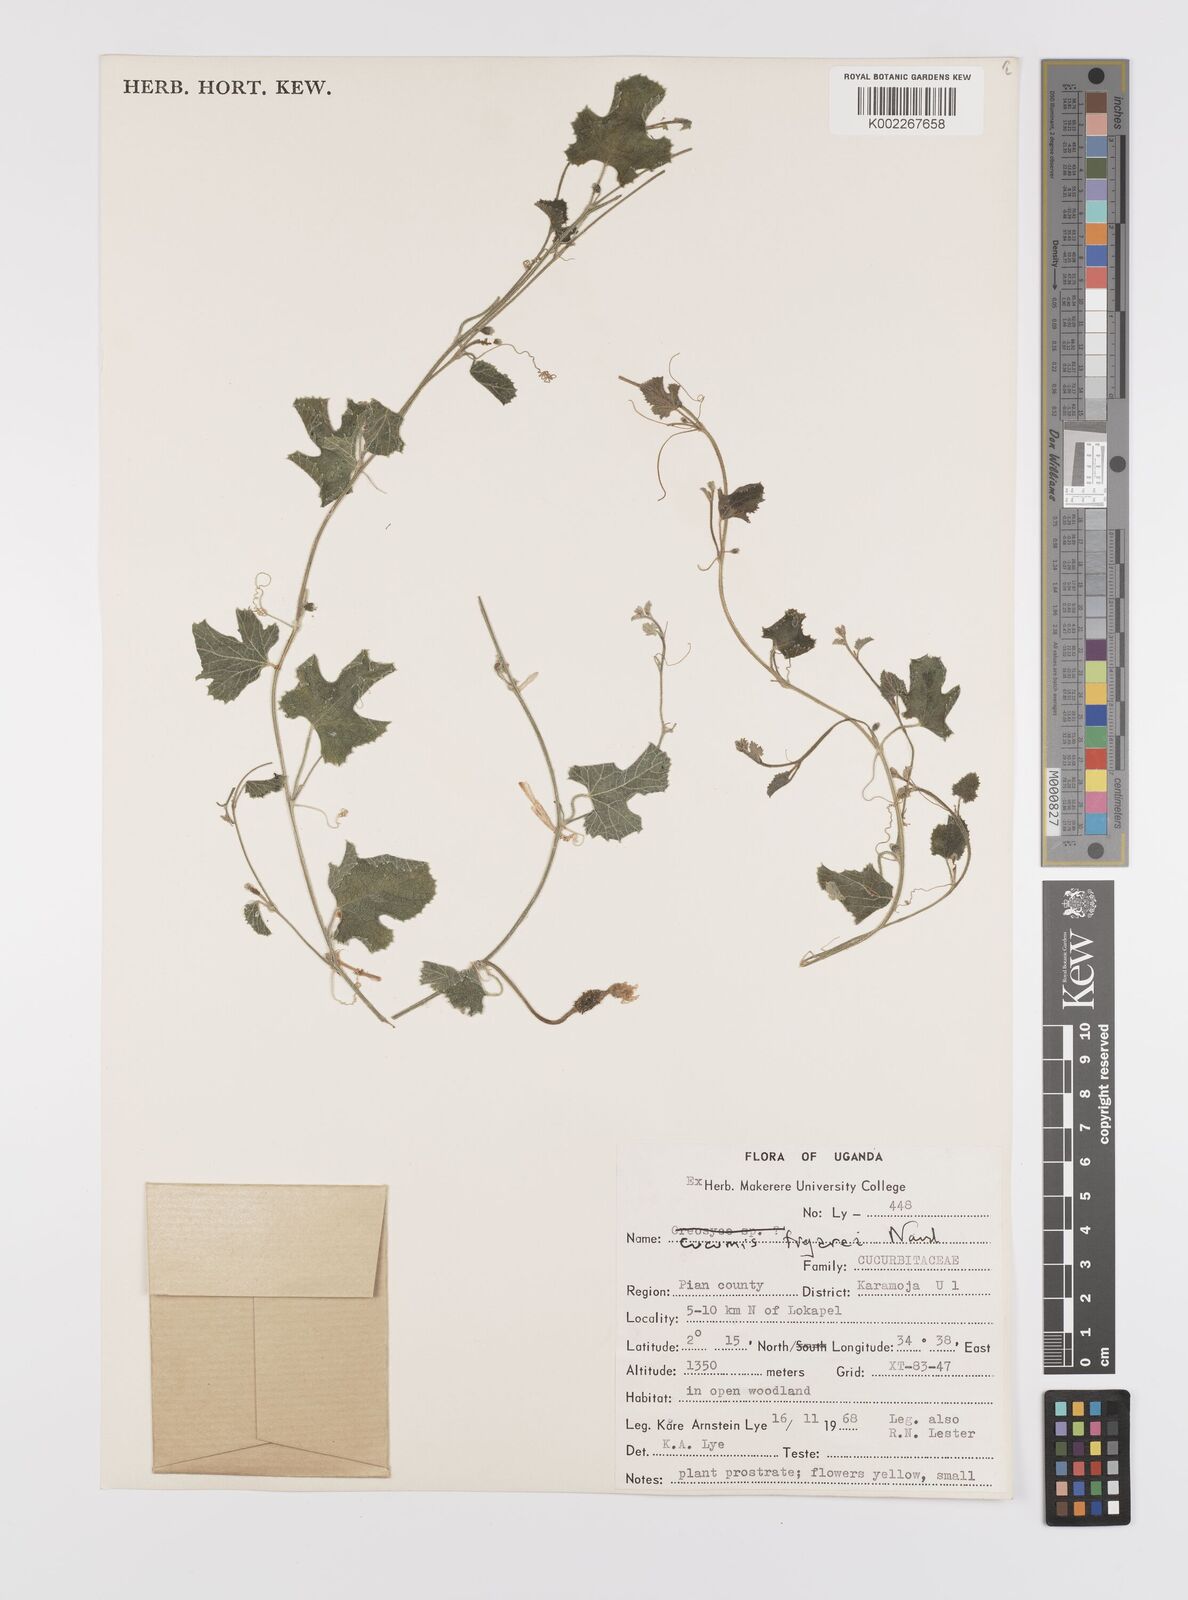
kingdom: Plantae
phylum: Tracheophyta
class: Magnoliopsida
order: Cucurbitales
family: Cucurbitaceae
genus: Cucumis
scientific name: Cucumis pustulatus
